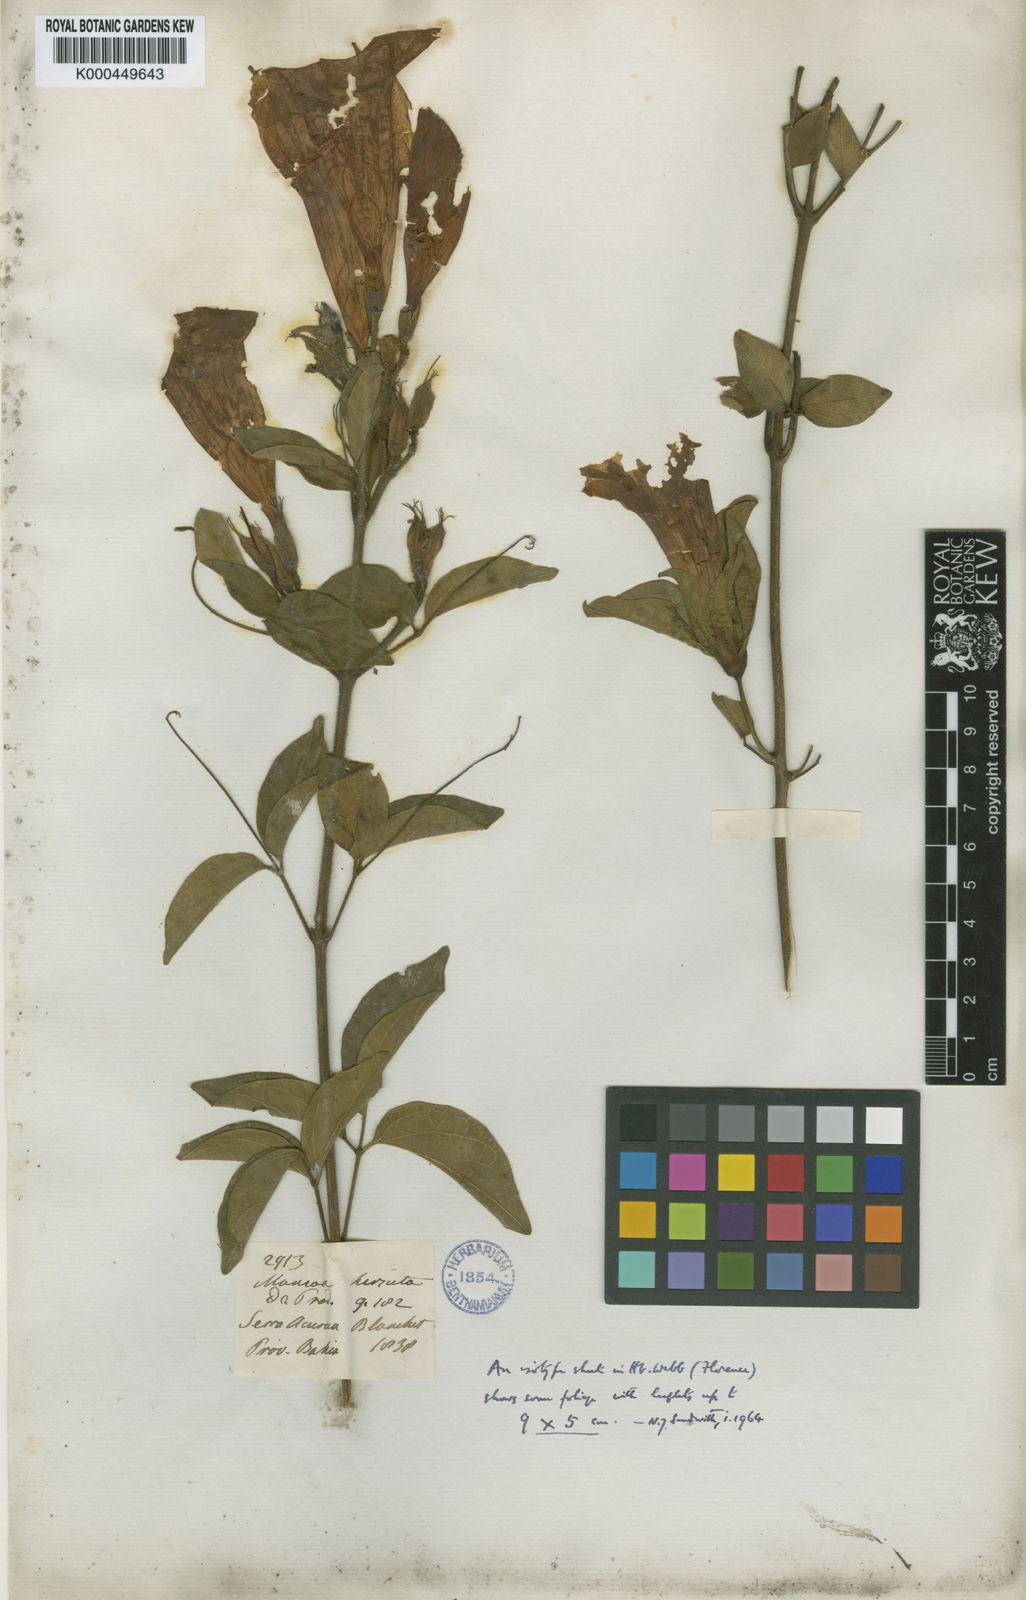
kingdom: Plantae
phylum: Tracheophyta
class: Magnoliopsida
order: Lamiales
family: Bignoniaceae
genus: Mansoa
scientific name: Mansoa hirsuta
